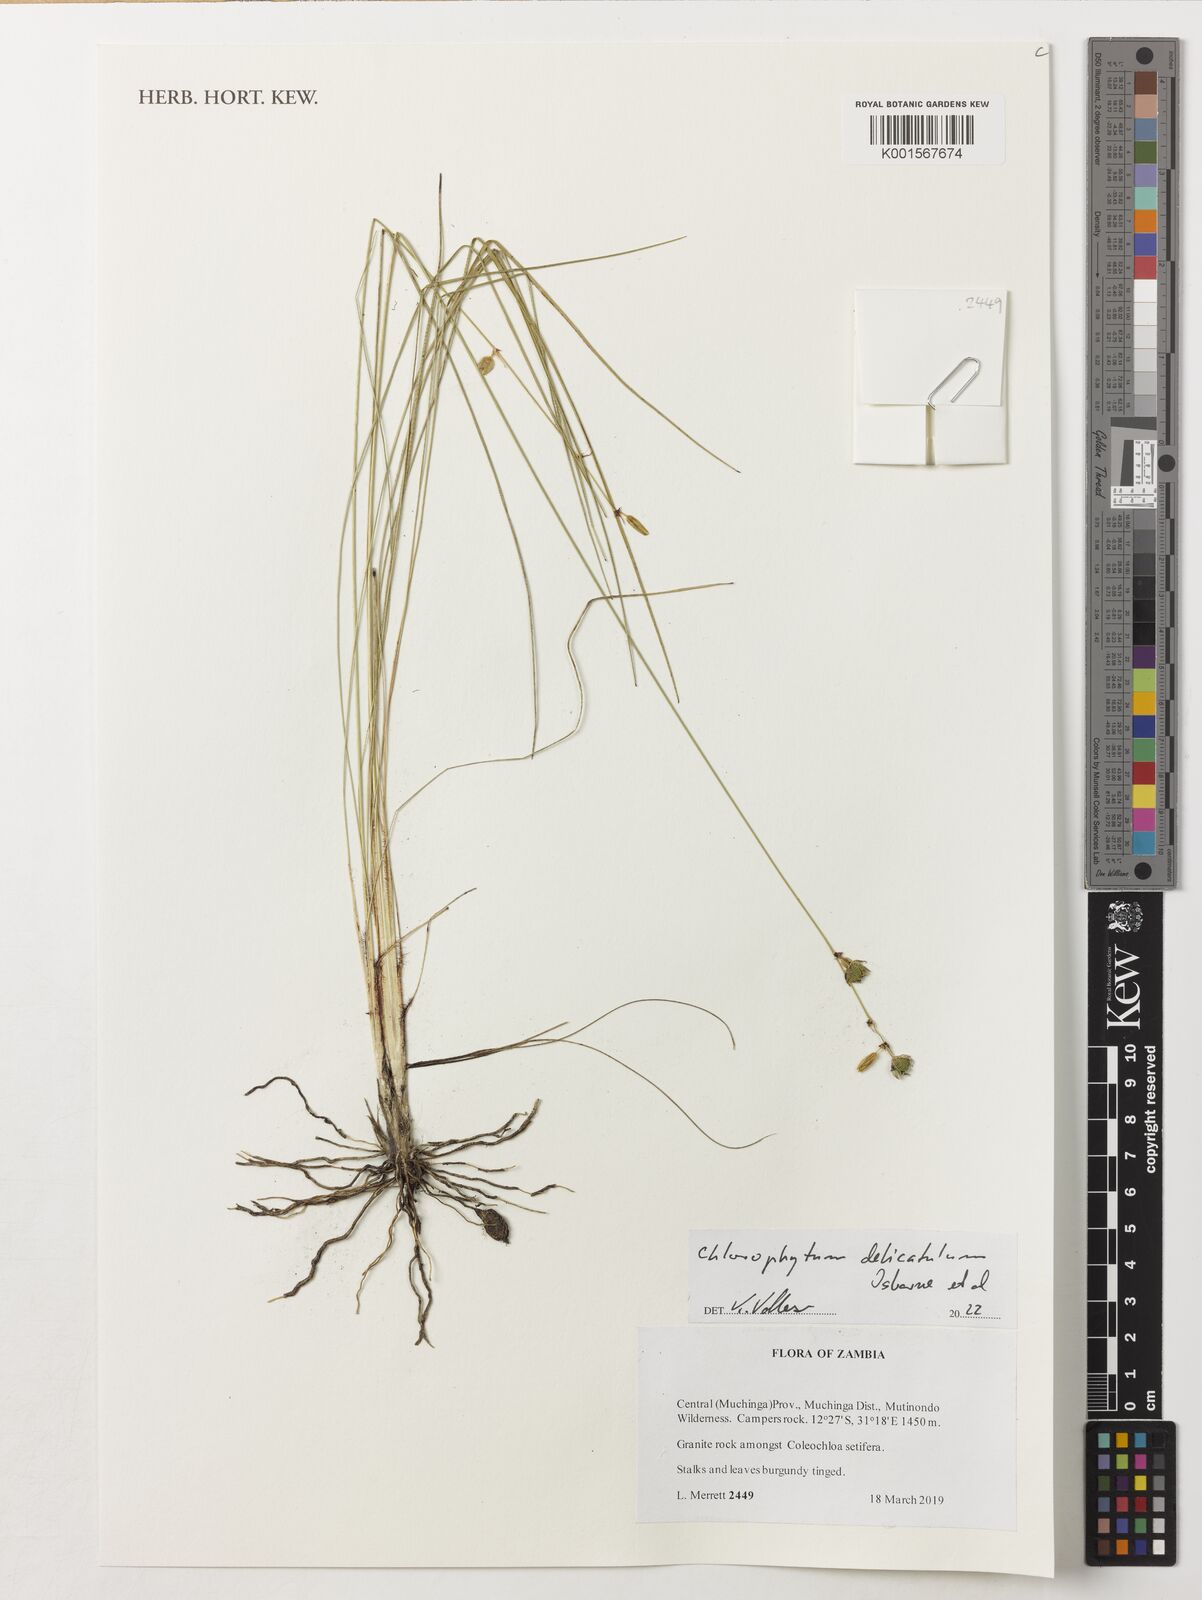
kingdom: Plantae
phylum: Tracheophyta
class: Liliopsida
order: Asparagales
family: Asparagaceae
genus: Chlorophytum
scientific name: Chlorophytum
